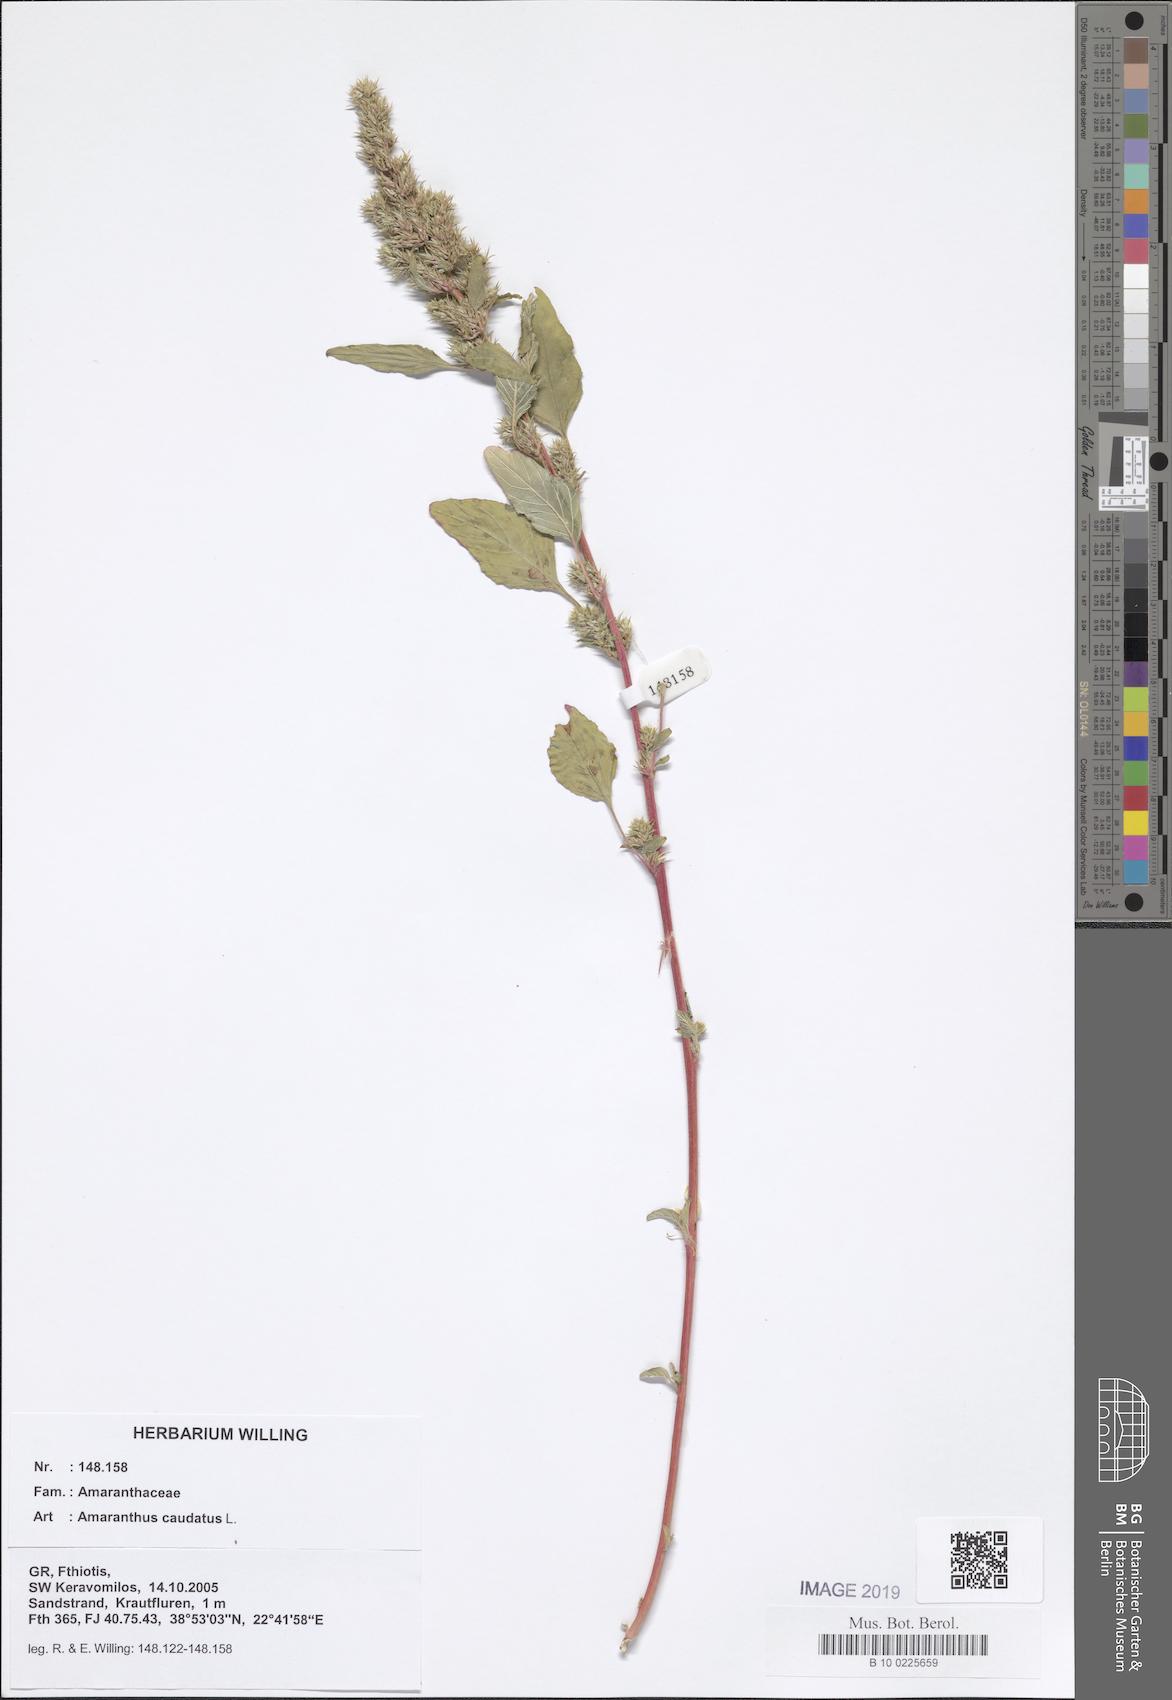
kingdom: Plantae
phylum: Tracheophyta
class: Magnoliopsida
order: Caryophyllales
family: Amaranthaceae
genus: Amaranthus
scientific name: Amaranthus caudatus
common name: Love-lies-bleeding
